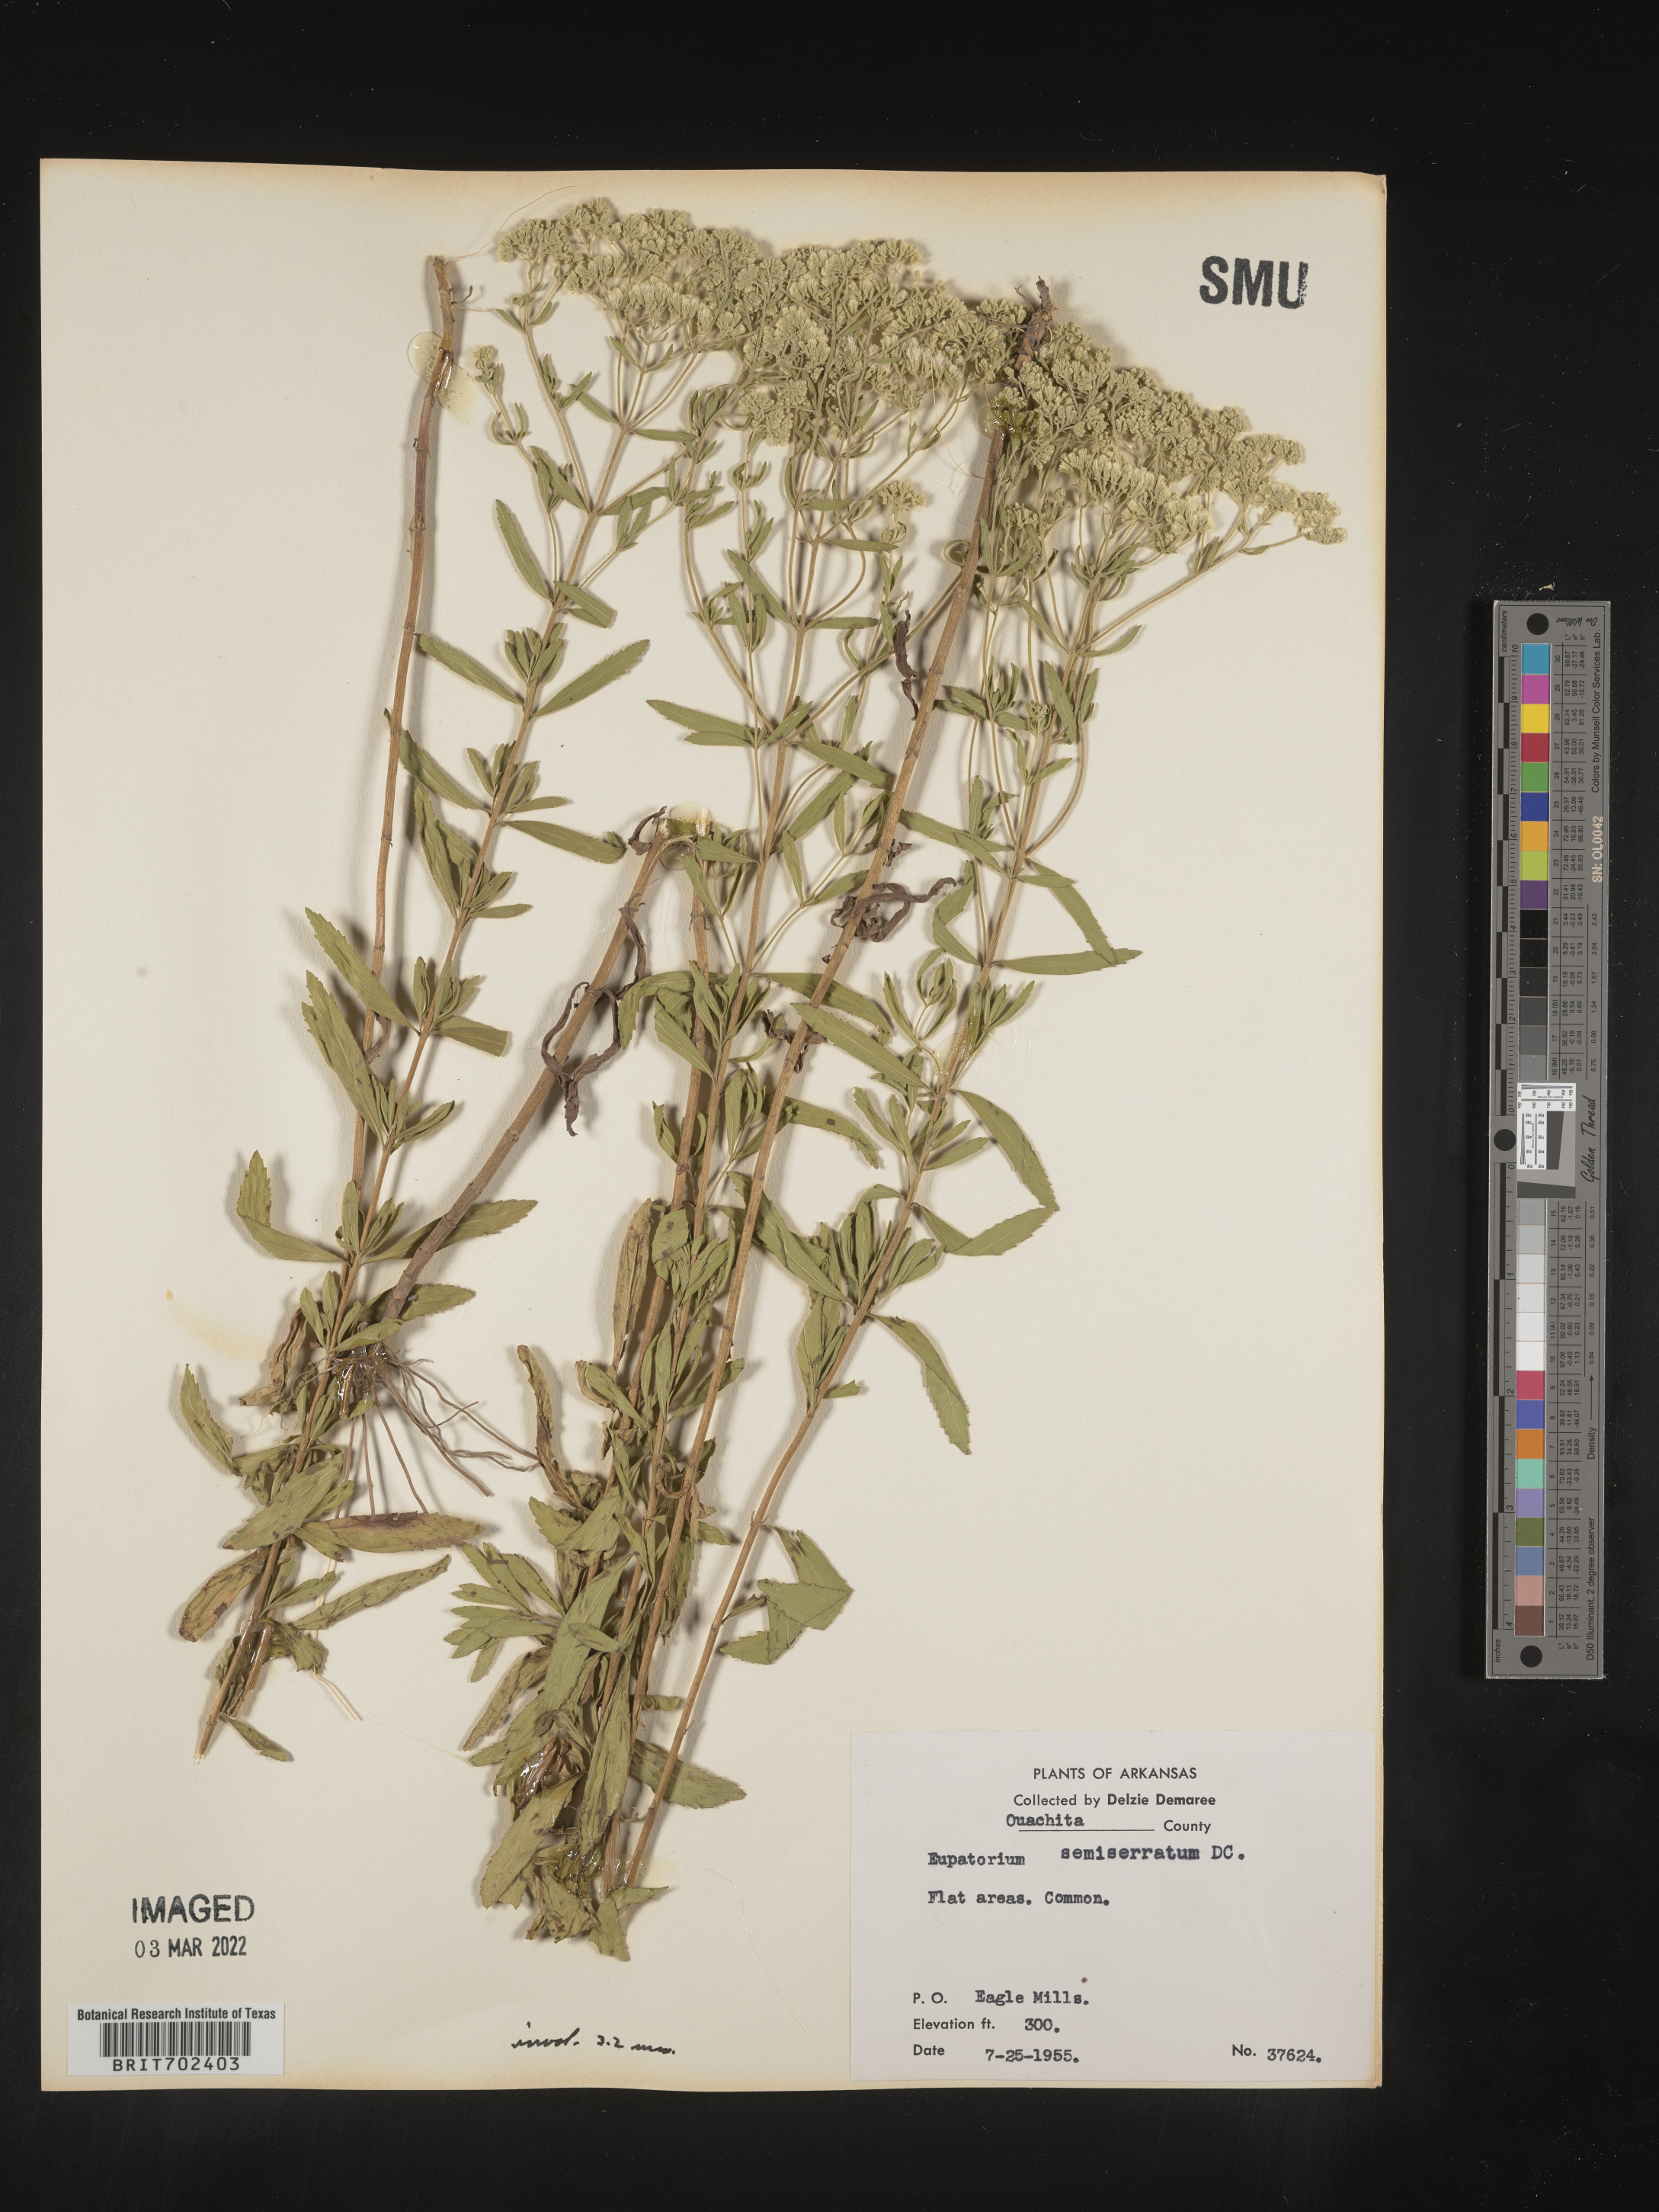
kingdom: Plantae
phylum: Tracheophyta
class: Magnoliopsida
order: Asterales
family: Asteraceae
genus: Eupatorium
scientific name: Eupatorium semiserratum
